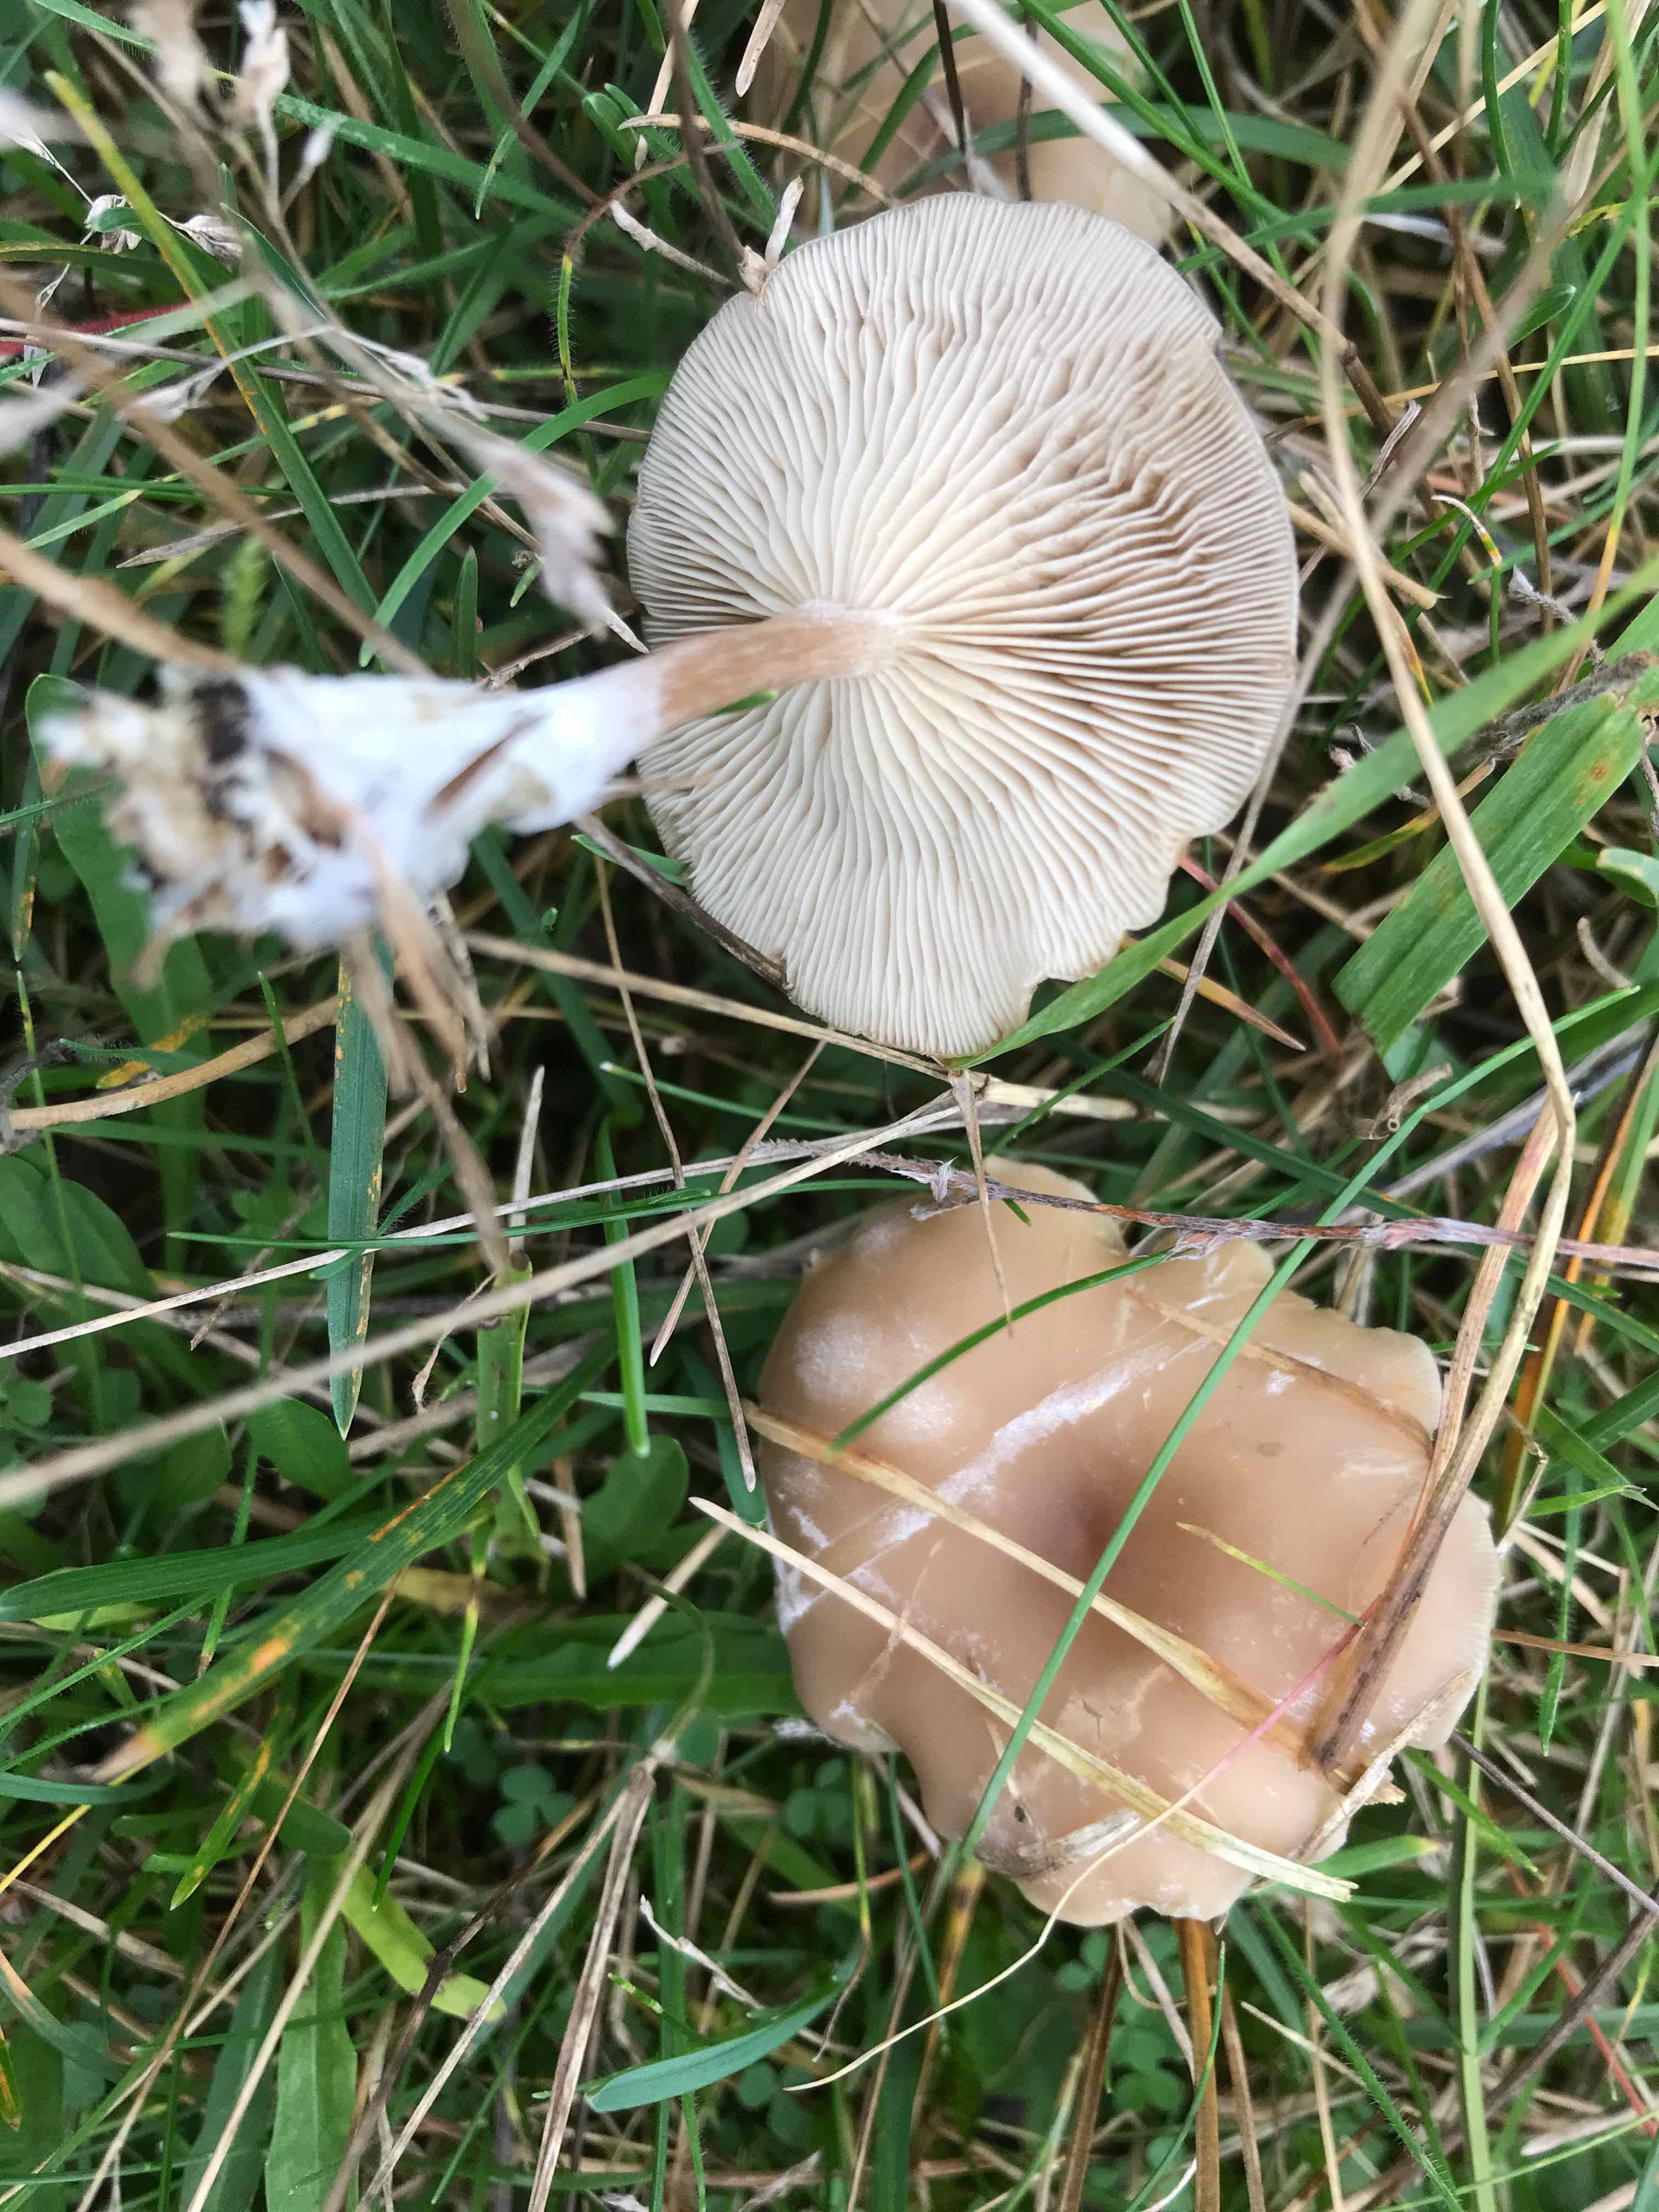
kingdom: Fungi
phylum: Basidiomycota
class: Agaricomycetes
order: Agaricales
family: Tricholomataceae
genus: Clitocybe
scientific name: Clitocybe
